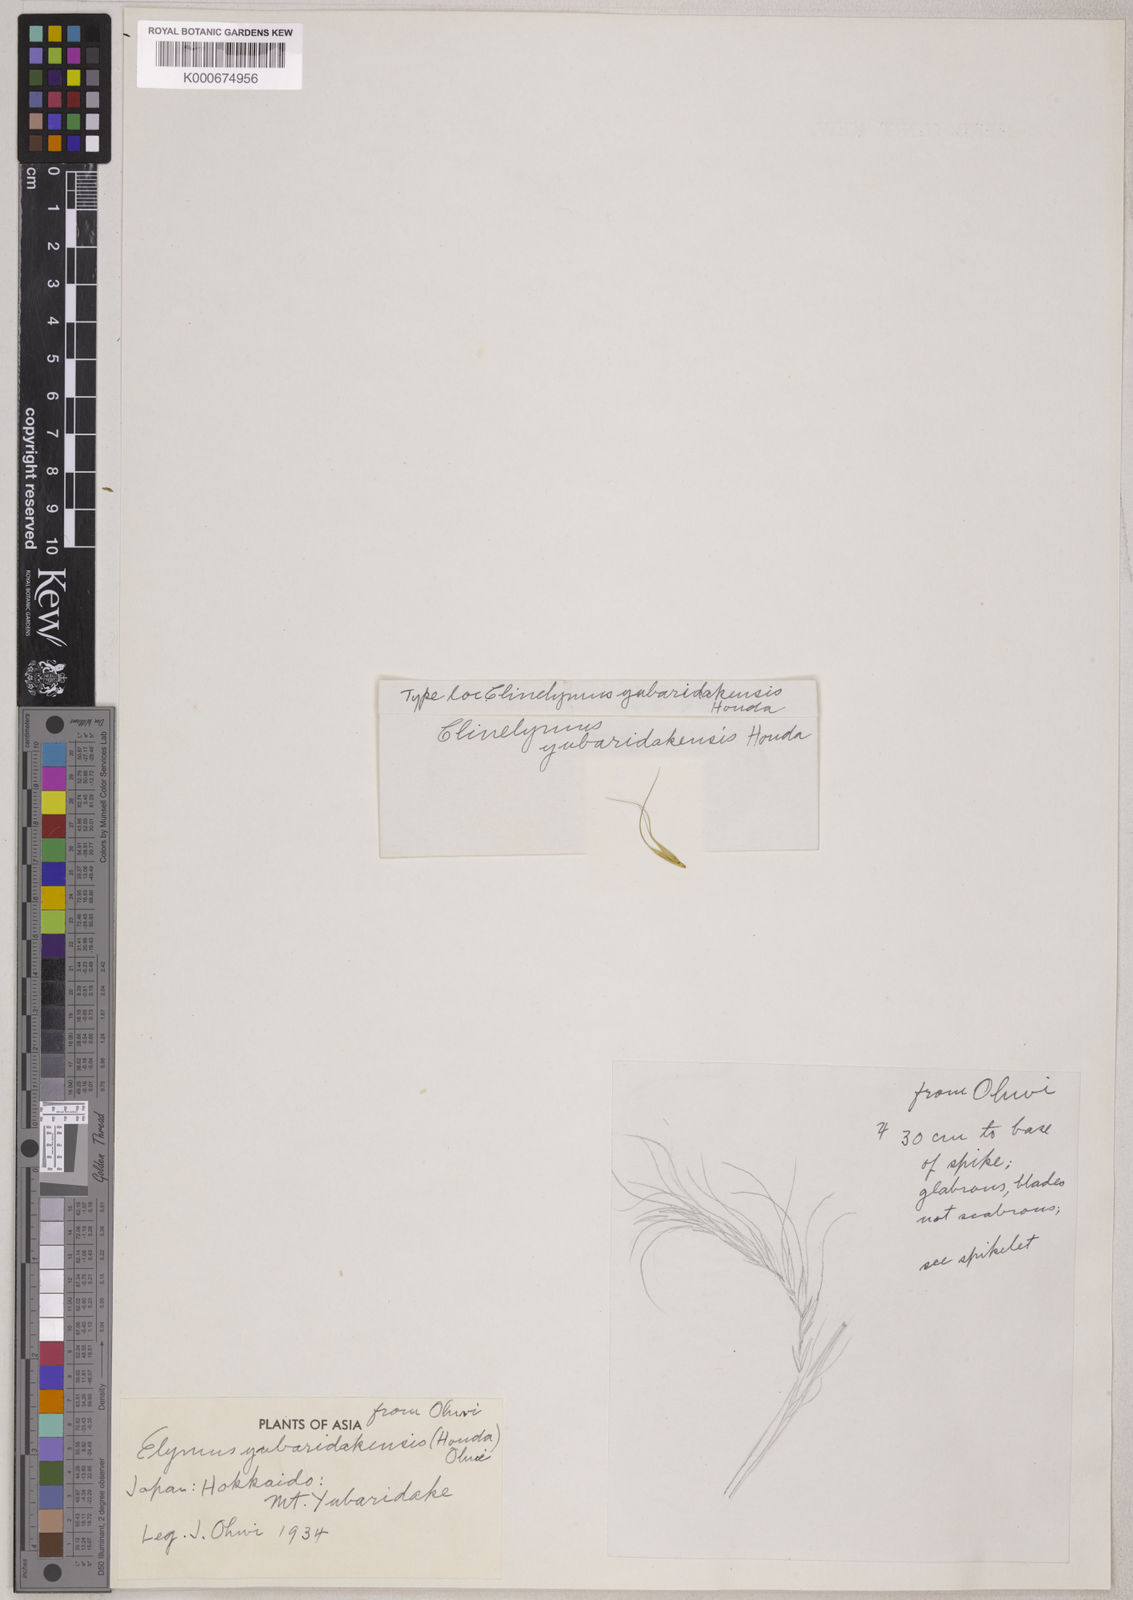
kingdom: Plantae
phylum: Tracheophyta
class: Liliopsida
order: Poales
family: Poaceae
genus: Elymus
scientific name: Elymus yubaridakensis
